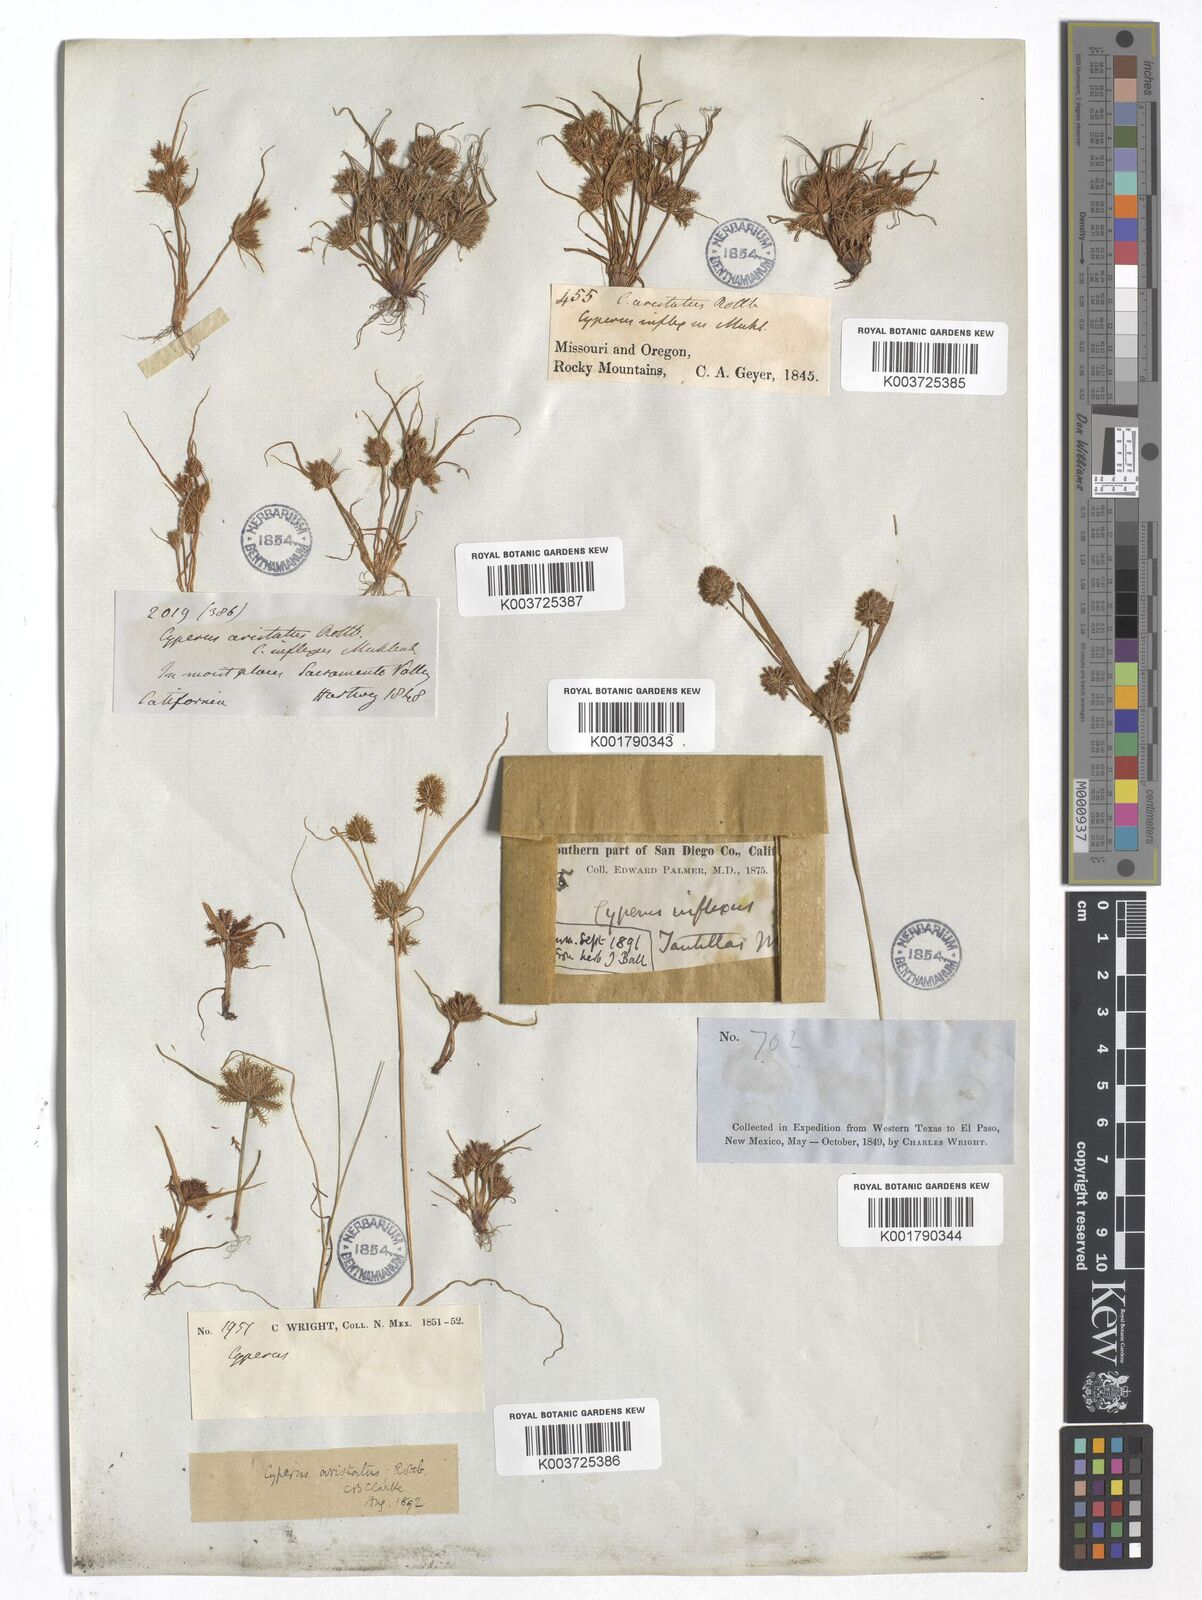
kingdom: Plantae
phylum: Tracheophyta
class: Liliopsida
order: Poales
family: Cyperaceae
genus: Cyperus
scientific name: Cyperus squarrosus
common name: Awned cyperus
